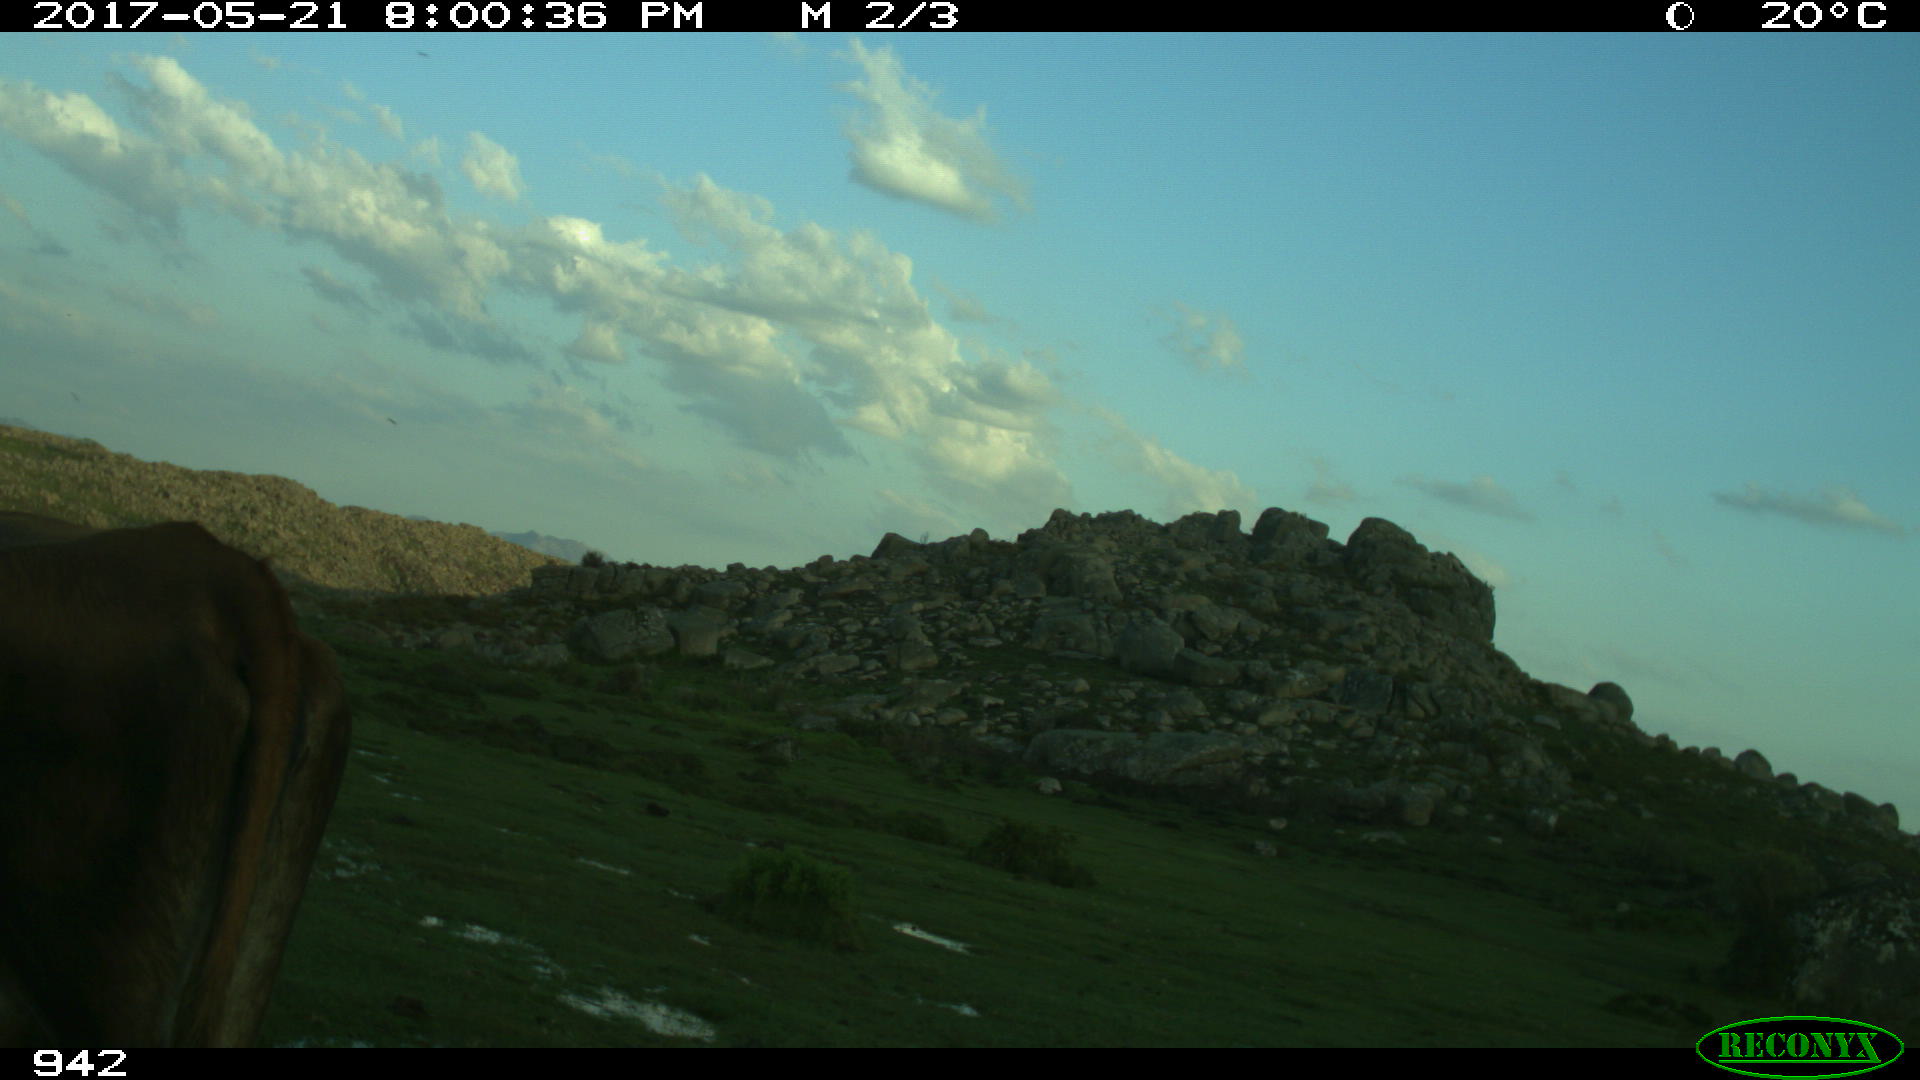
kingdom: Animalia
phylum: Chordata
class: Mammalia
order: Artiodactyla
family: Bovidae
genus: Bos
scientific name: Bos taurus
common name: Domesticated cattle
